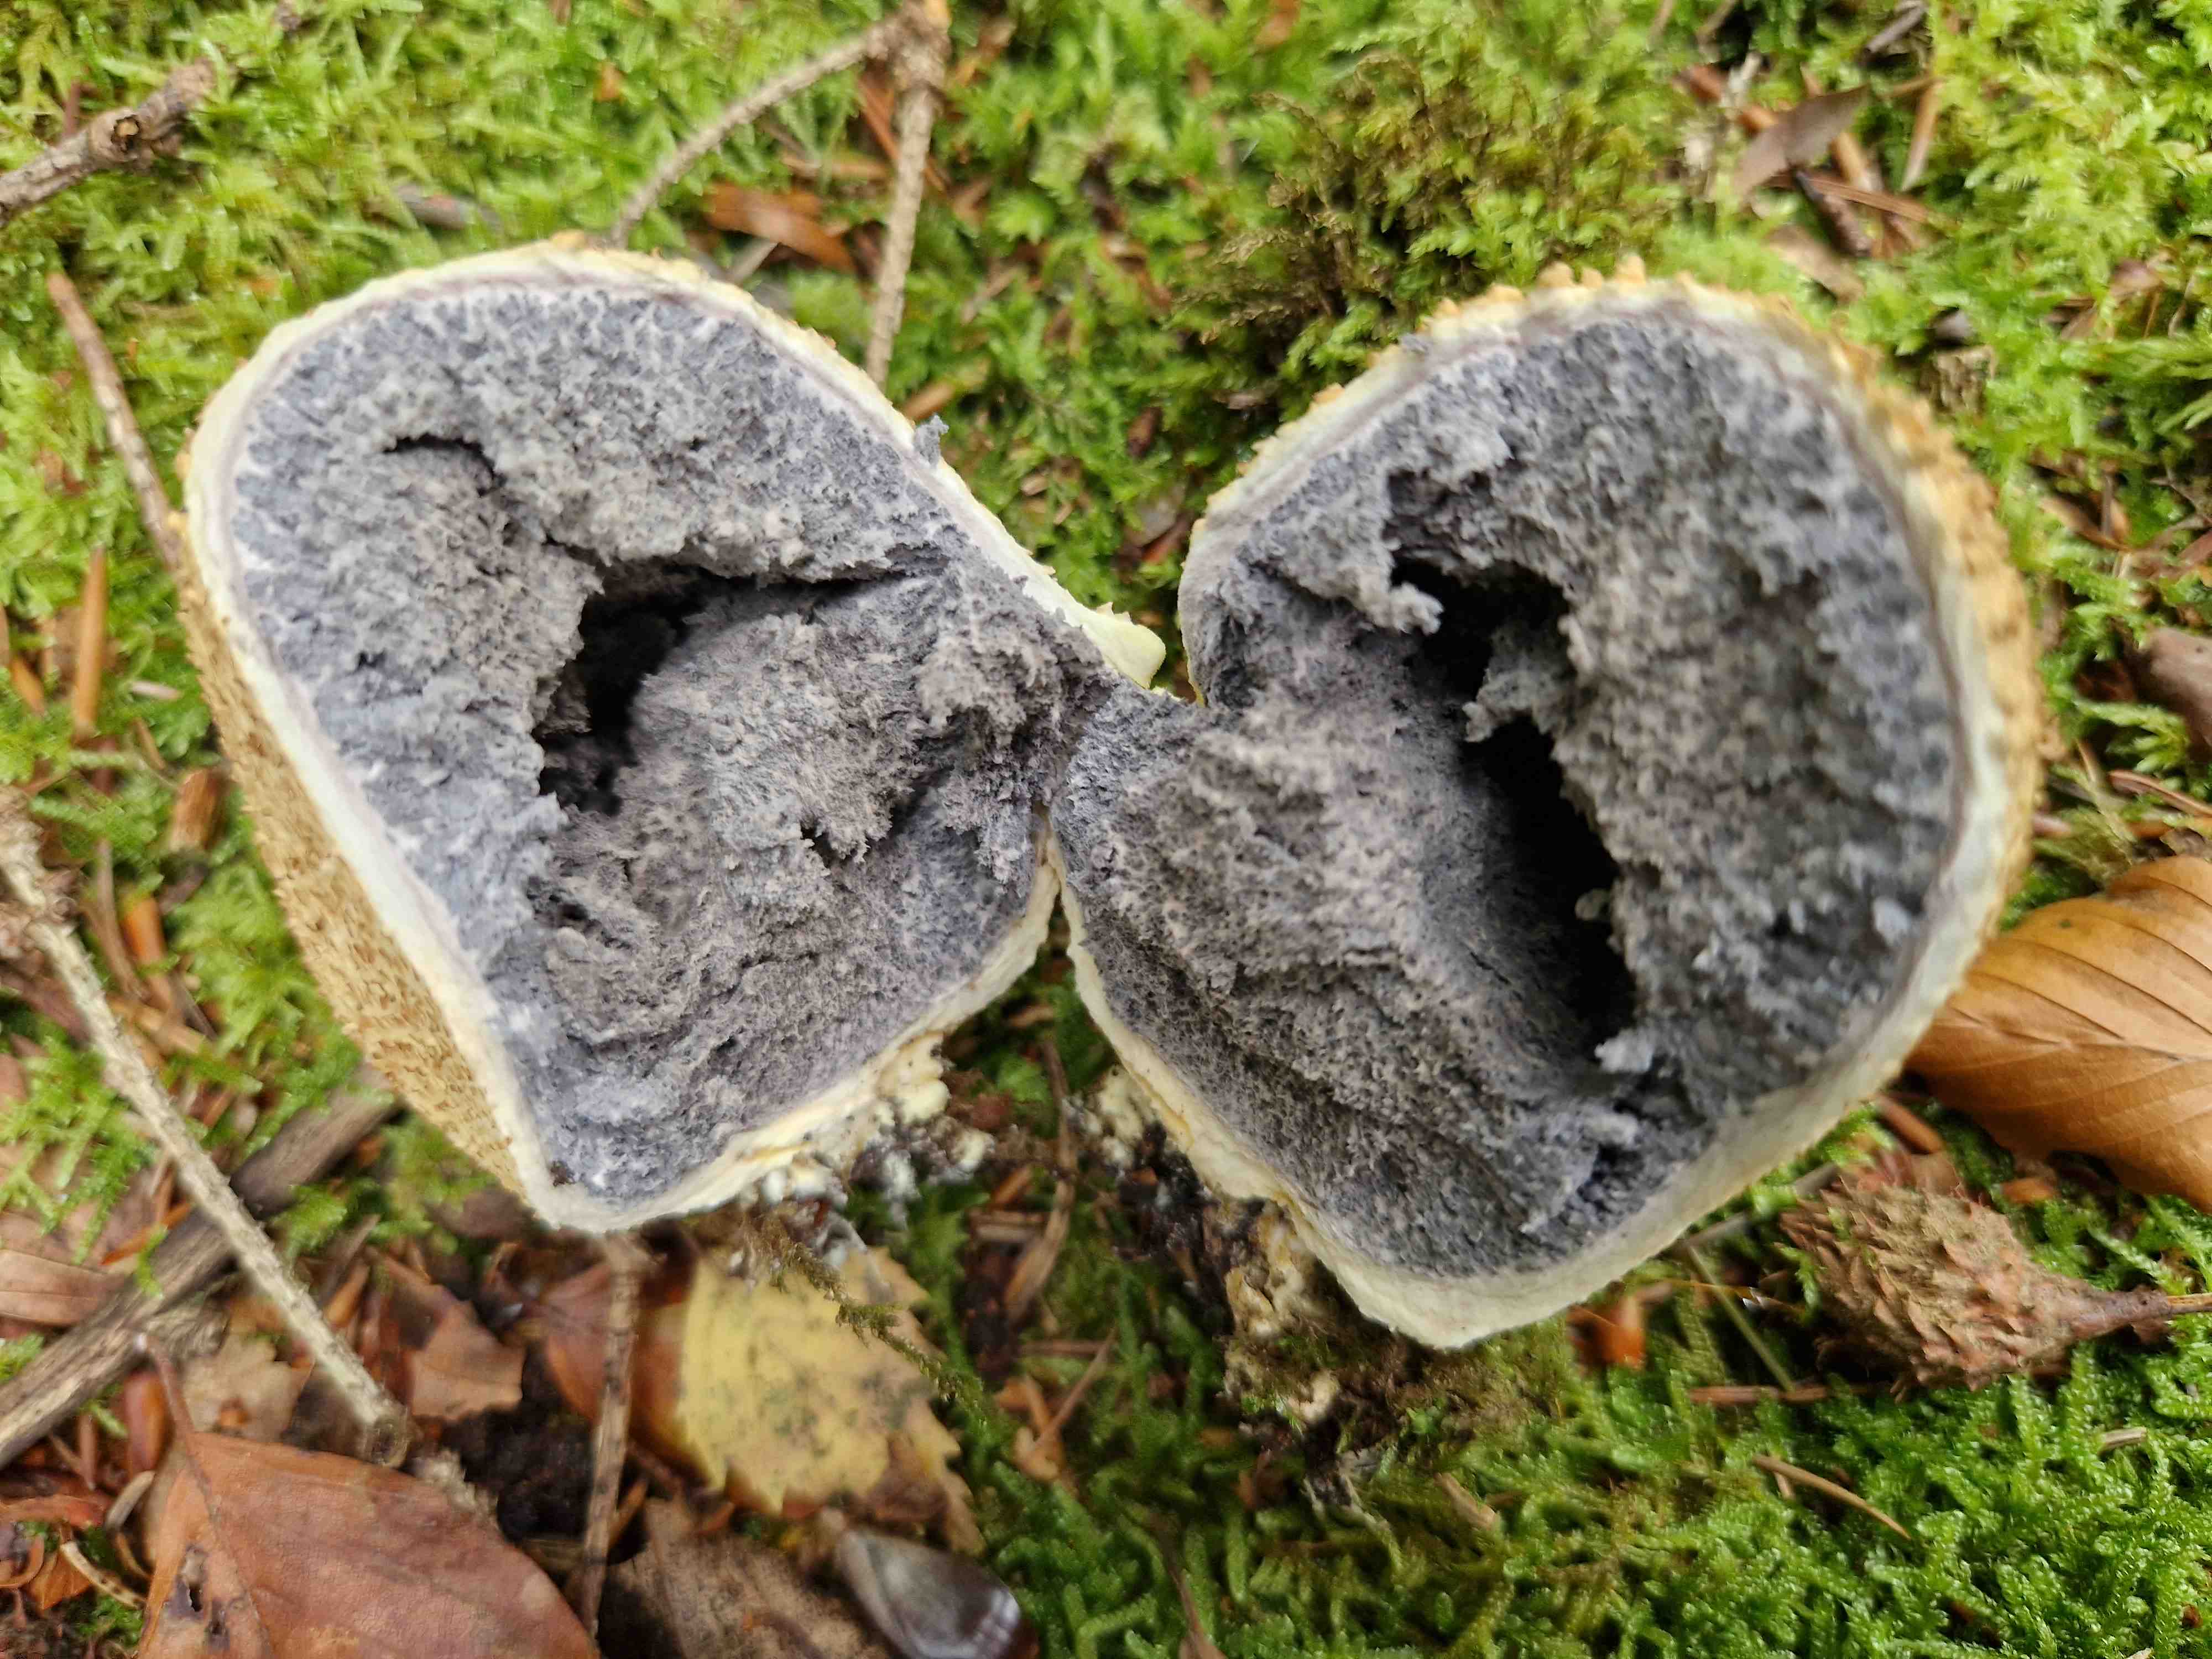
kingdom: Fungi
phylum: Basidiomycota
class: Agaricomycetes
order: Boletales
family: Sclerodermataceae
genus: Scleroderma
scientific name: Scleroderma citrinum
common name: almindelig bruskbold
